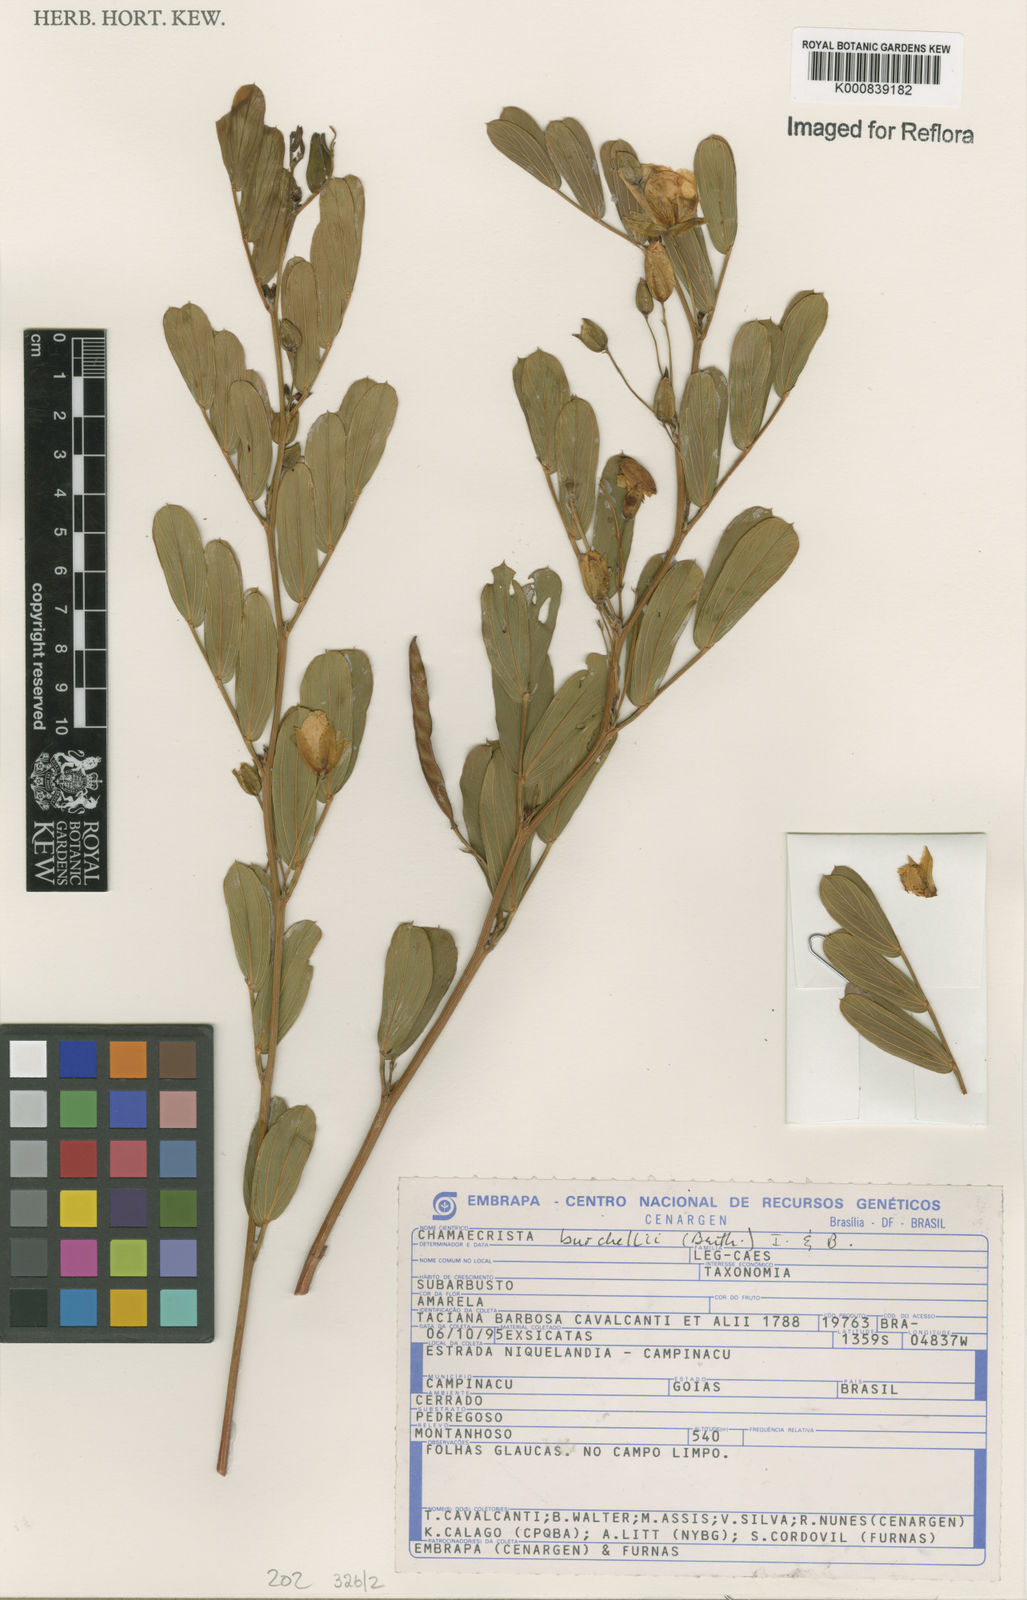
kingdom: Plantae
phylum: Tracheophyta
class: Magnoliopsida
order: Fabales
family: Fabaceae
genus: Chamaecrista
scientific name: Chamaecrista burchellii
